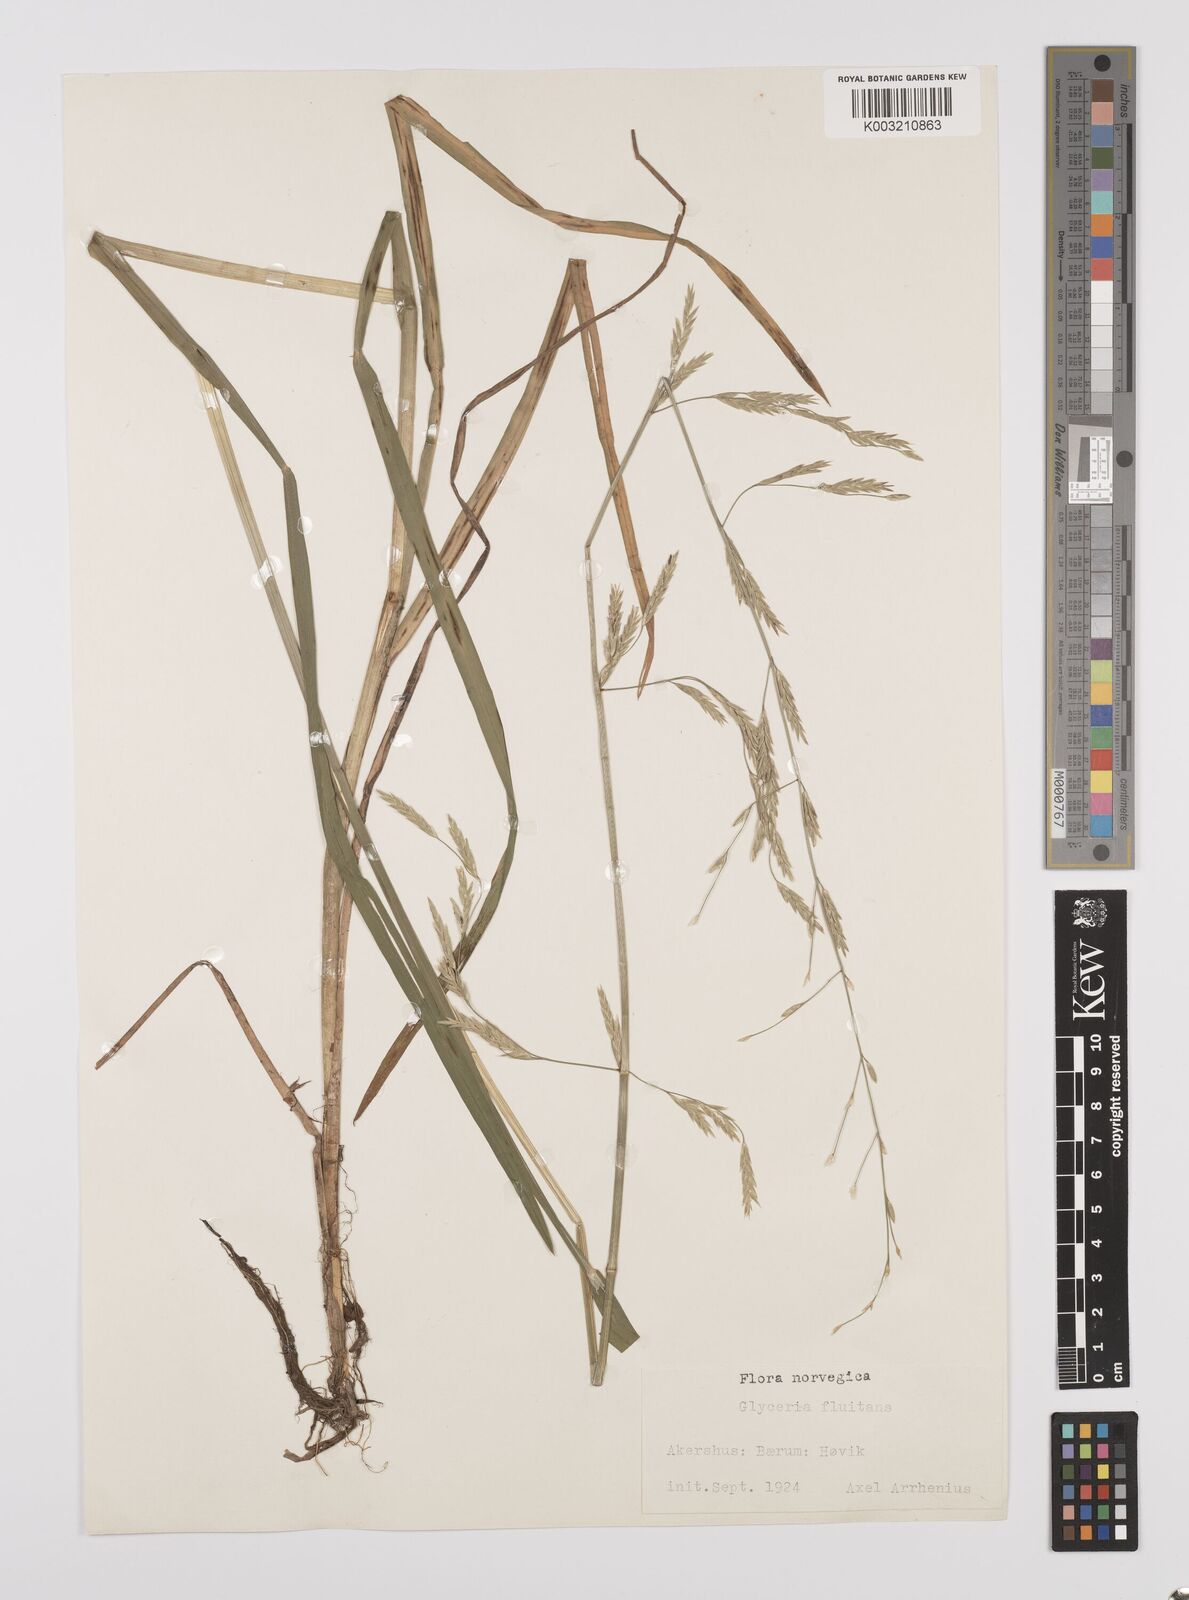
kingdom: Plantae
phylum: Tracheophyta
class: Liliopsida
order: Poales
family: Poaceae
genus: Glyceria
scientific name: Glyceria fluitans
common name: Floating sweet-grass
